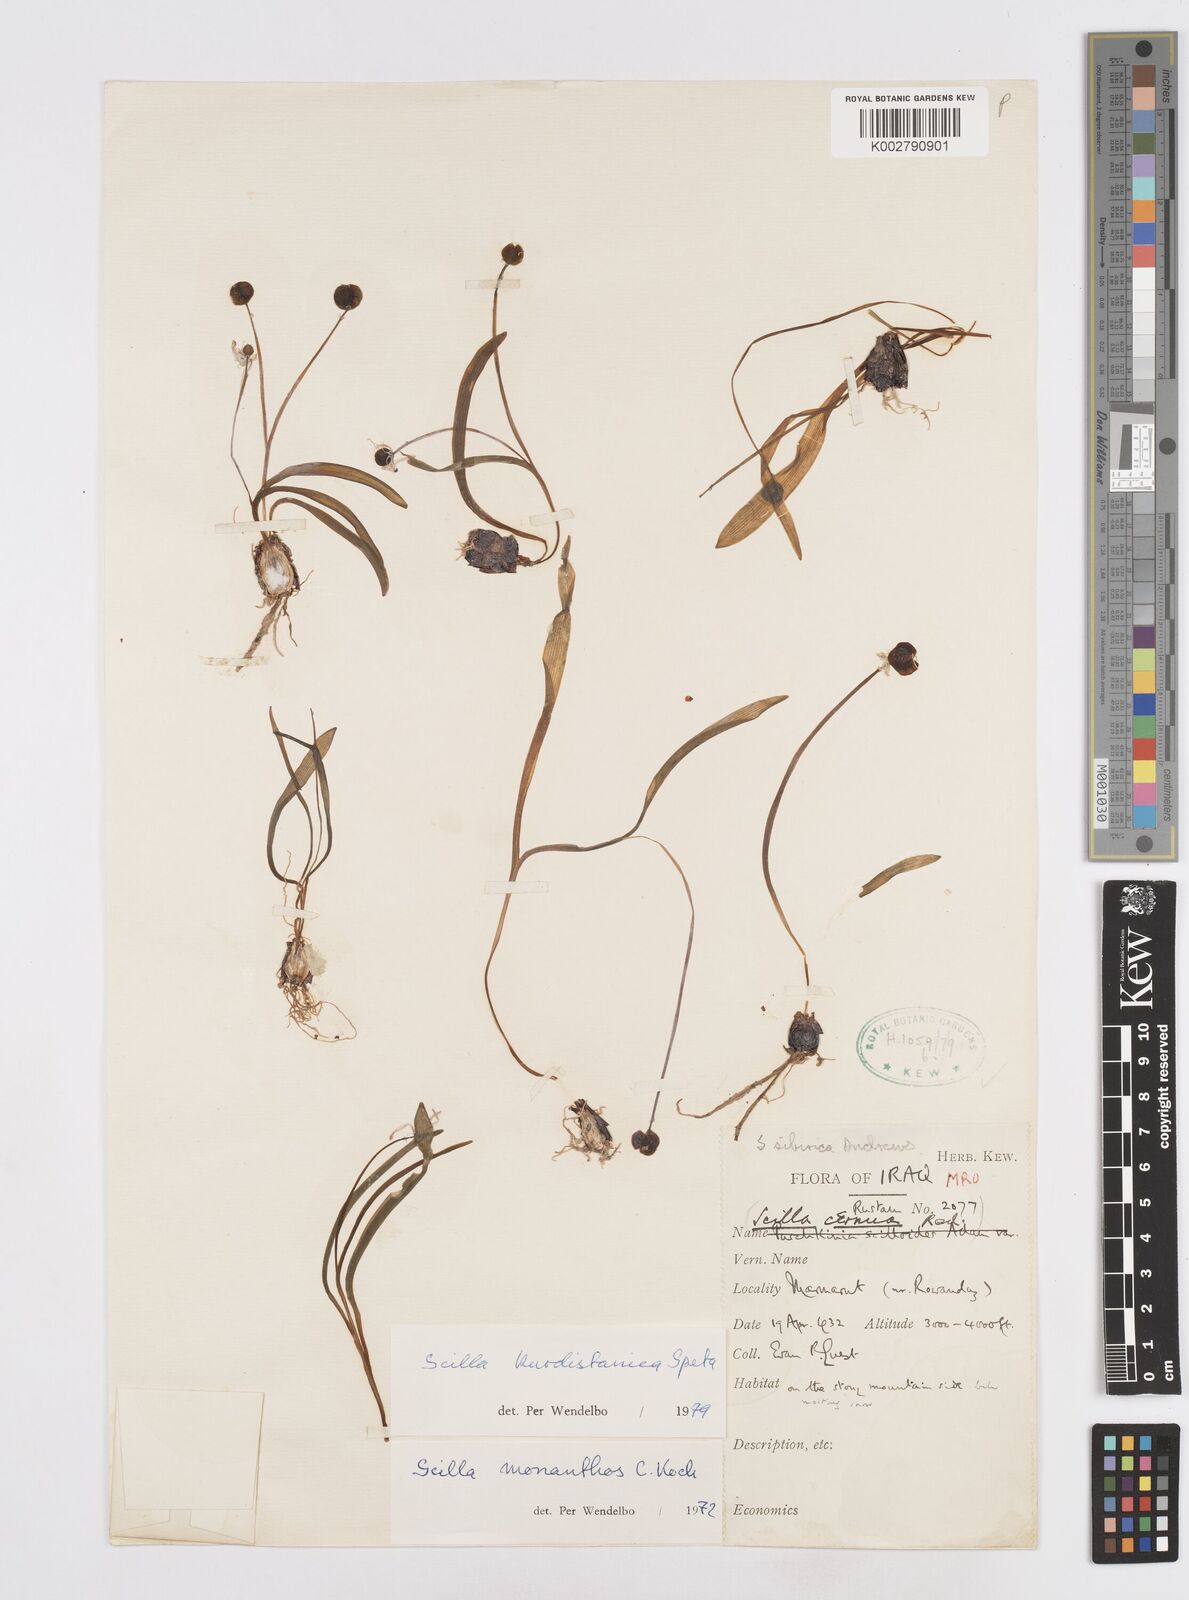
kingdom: Plantae
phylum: Tracheophyta
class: Liliopsida
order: Asparagales
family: Asparagaceae
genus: Scilla
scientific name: Scilla kurdistanica
